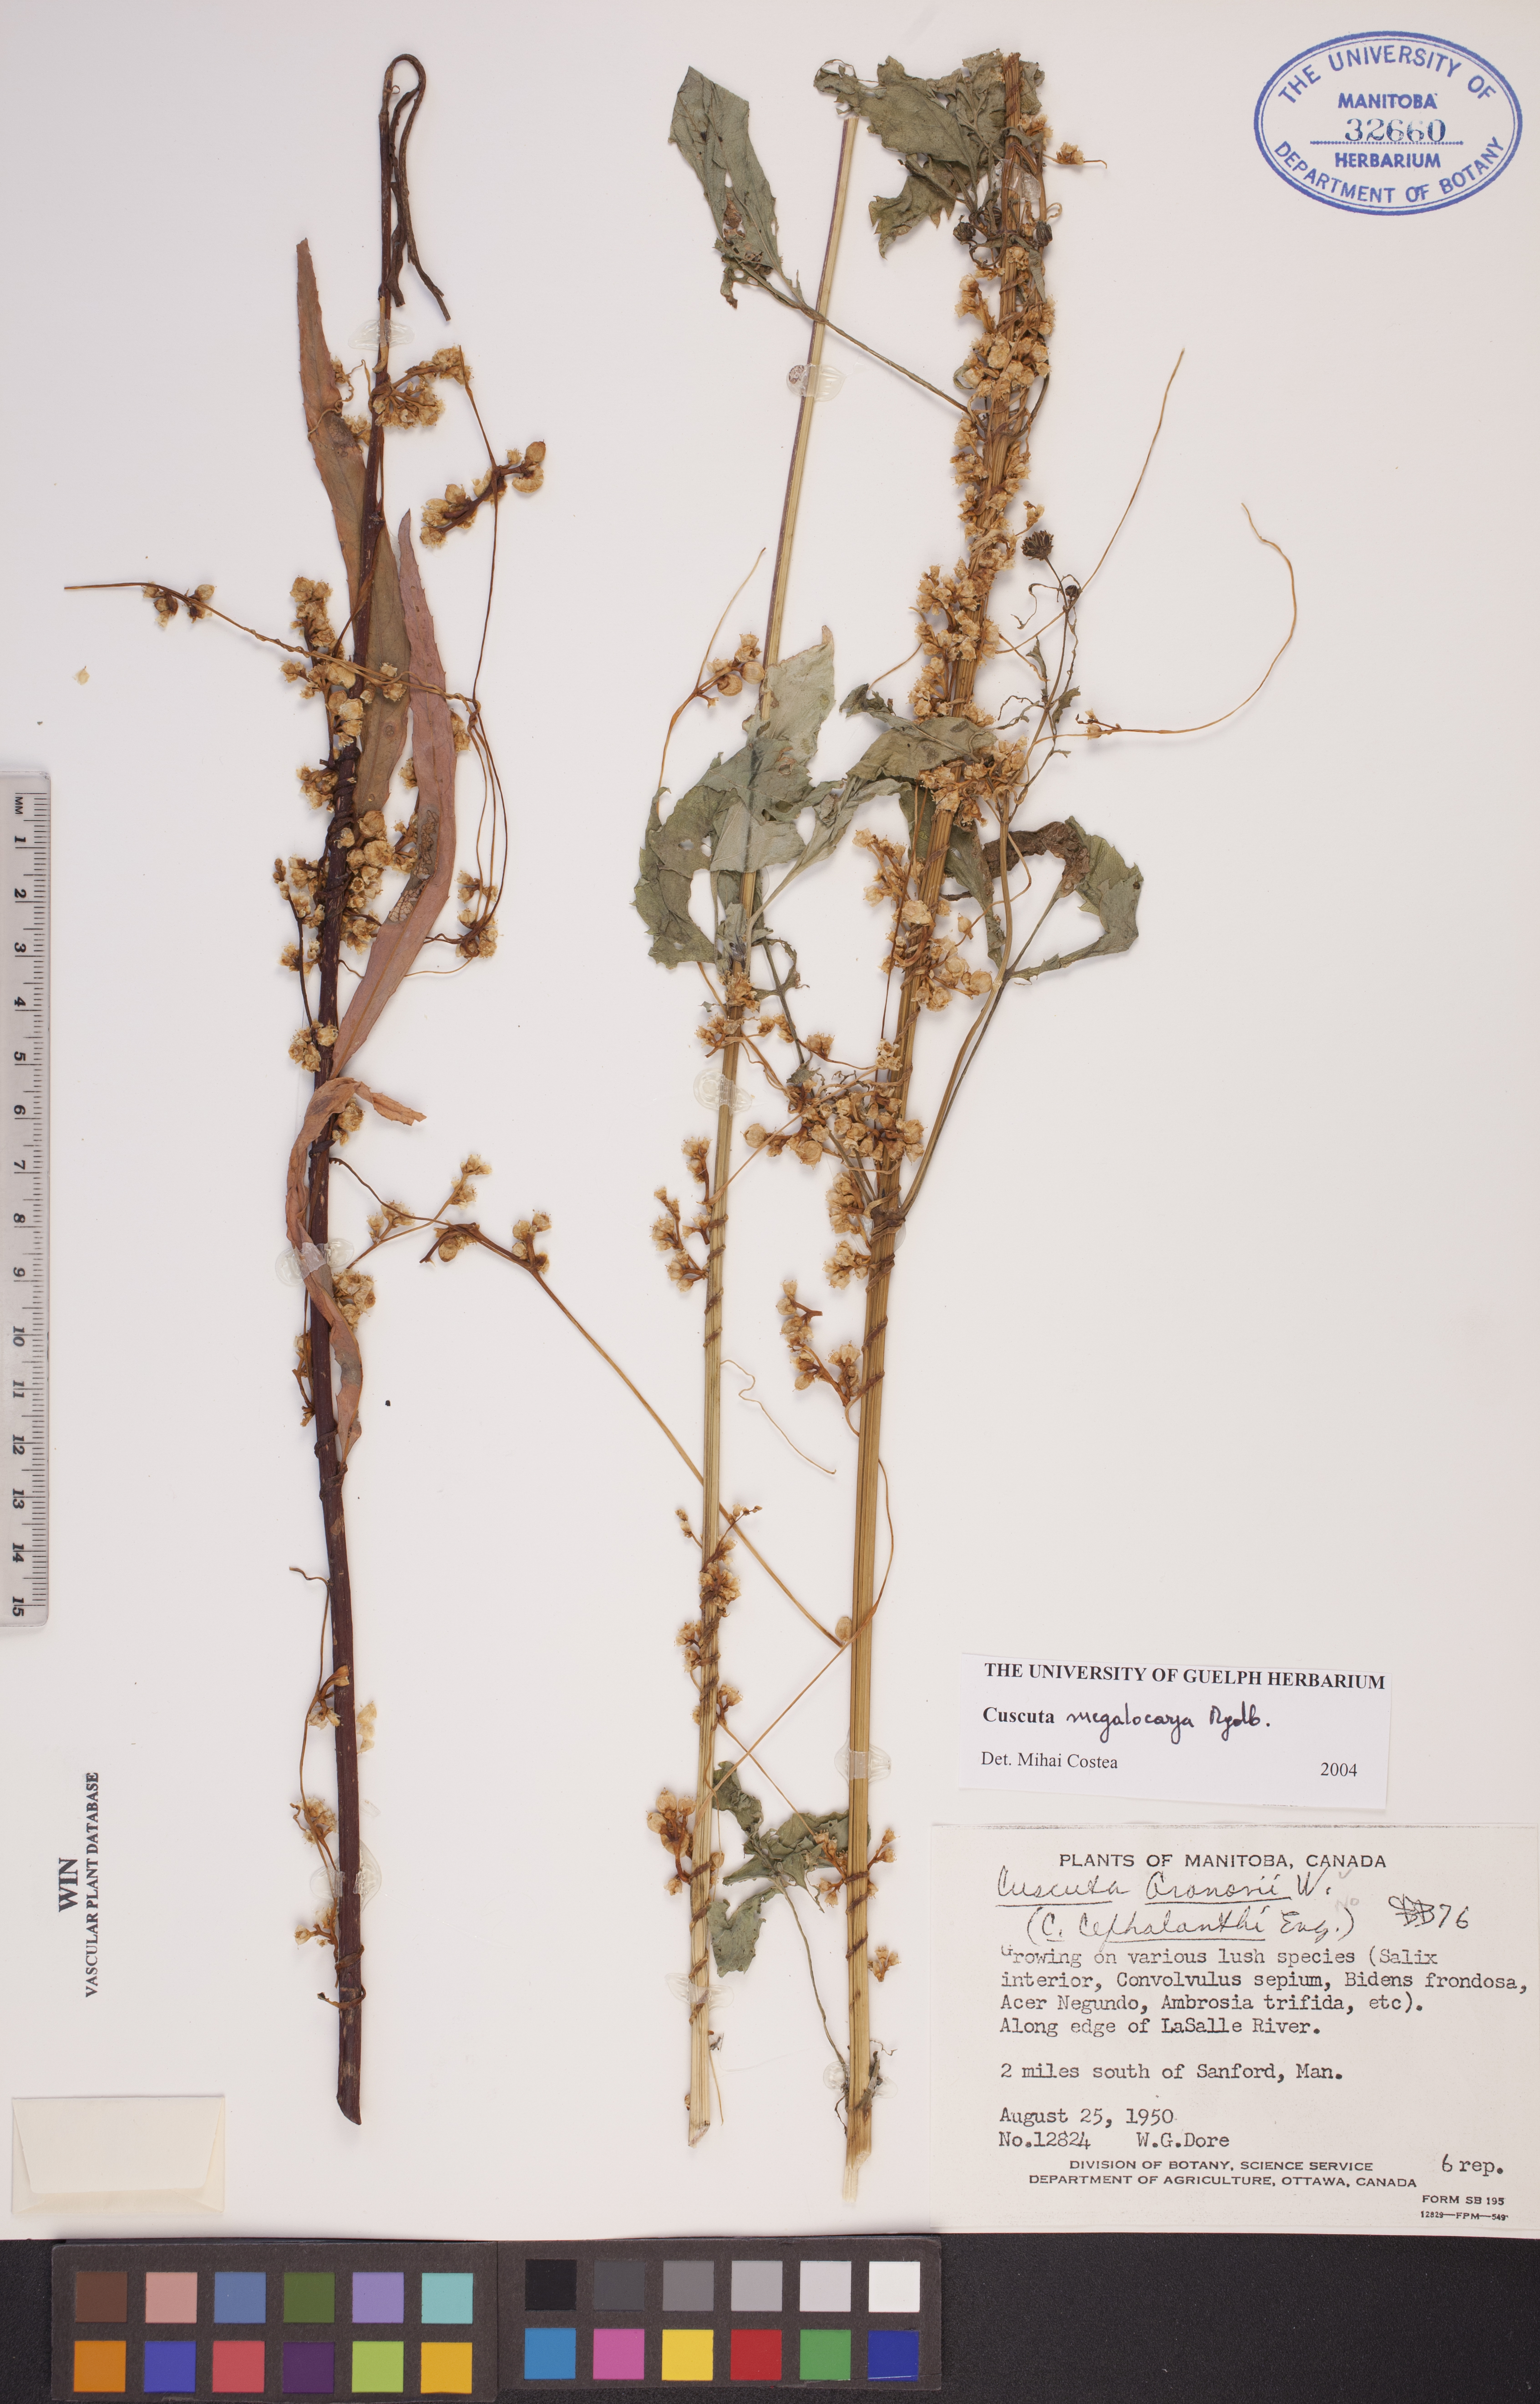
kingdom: Plantae
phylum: Tracheophyta
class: Magnoliopsida
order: Solanales
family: Convolvulaceae
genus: Cuscuta
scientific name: Cuscuta umbrosa
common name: Bigfruit dodder
